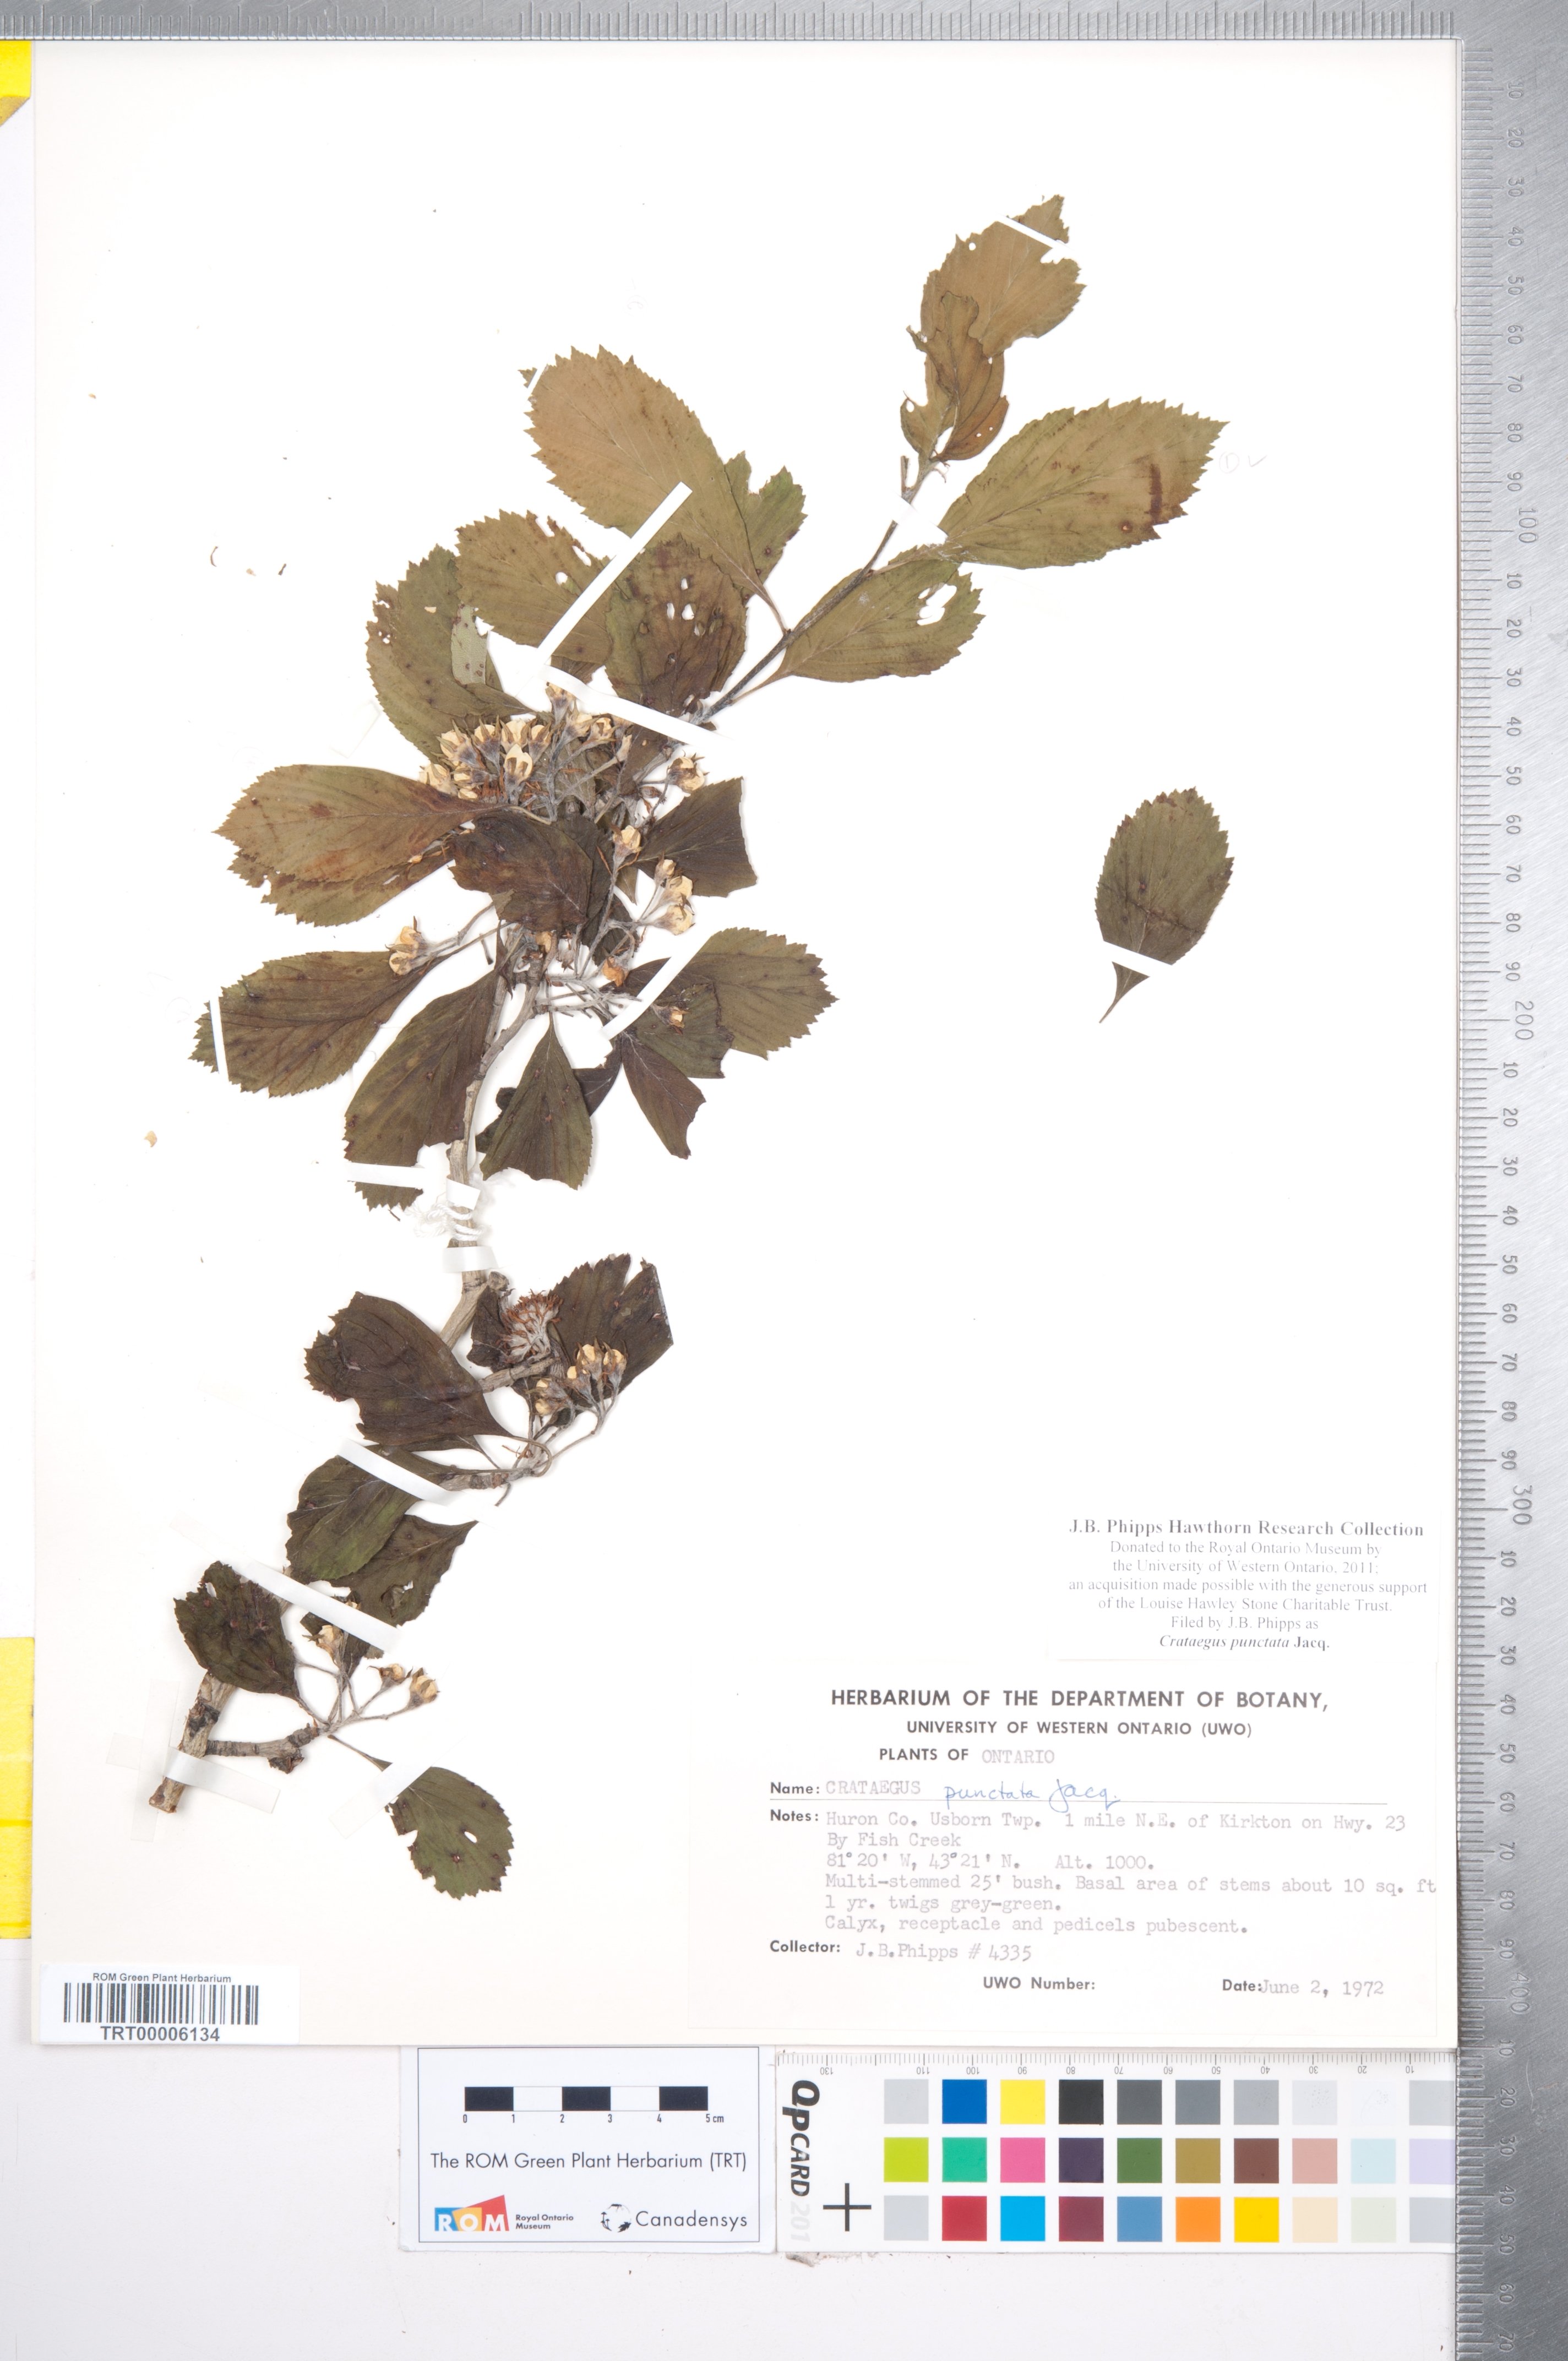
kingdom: Plantae
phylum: Tracheophyta
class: Magnoliopsida
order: Rosales
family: Rosaceae
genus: Crataegus
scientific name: Crataegus punctata
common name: Dotted hawthorn
